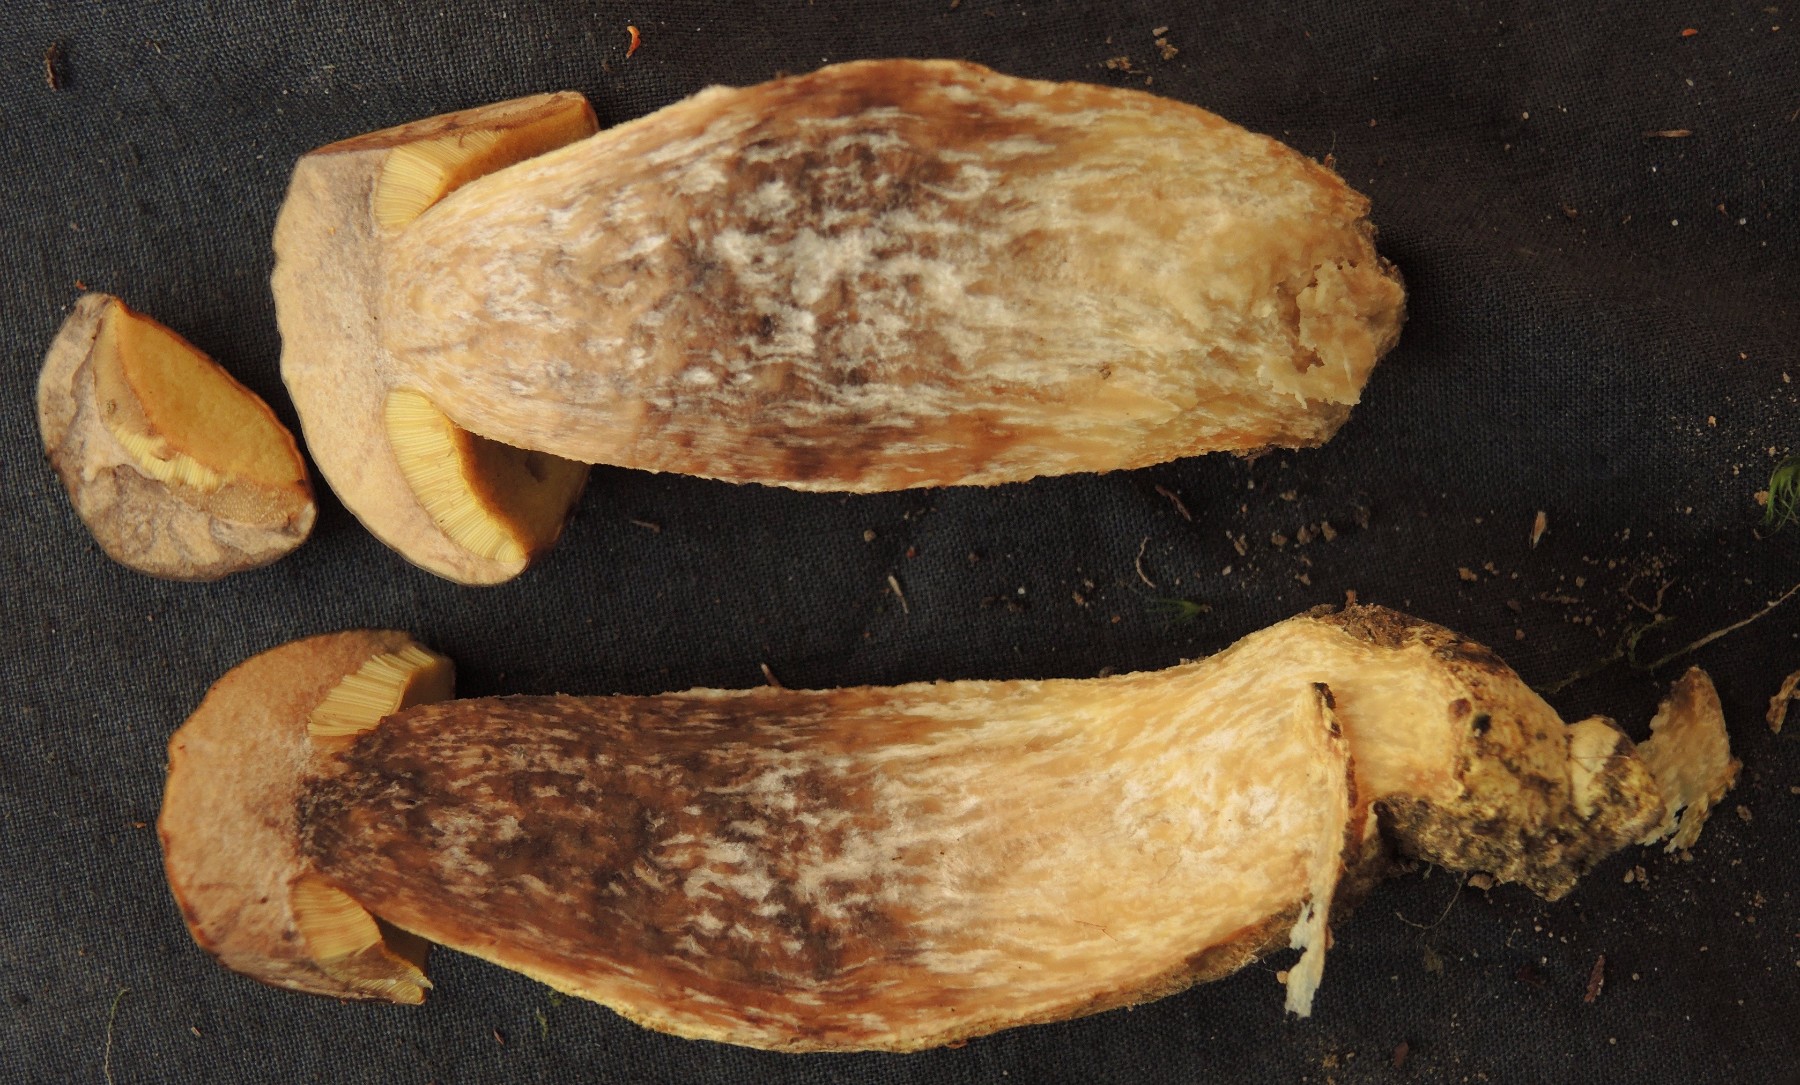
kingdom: Fungi
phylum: Basidiomycota
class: Agaricomycetes
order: Boletales
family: Boletaceae
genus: Leccinellum
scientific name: Leccinellum crocipodium
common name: gul skælrørhat
